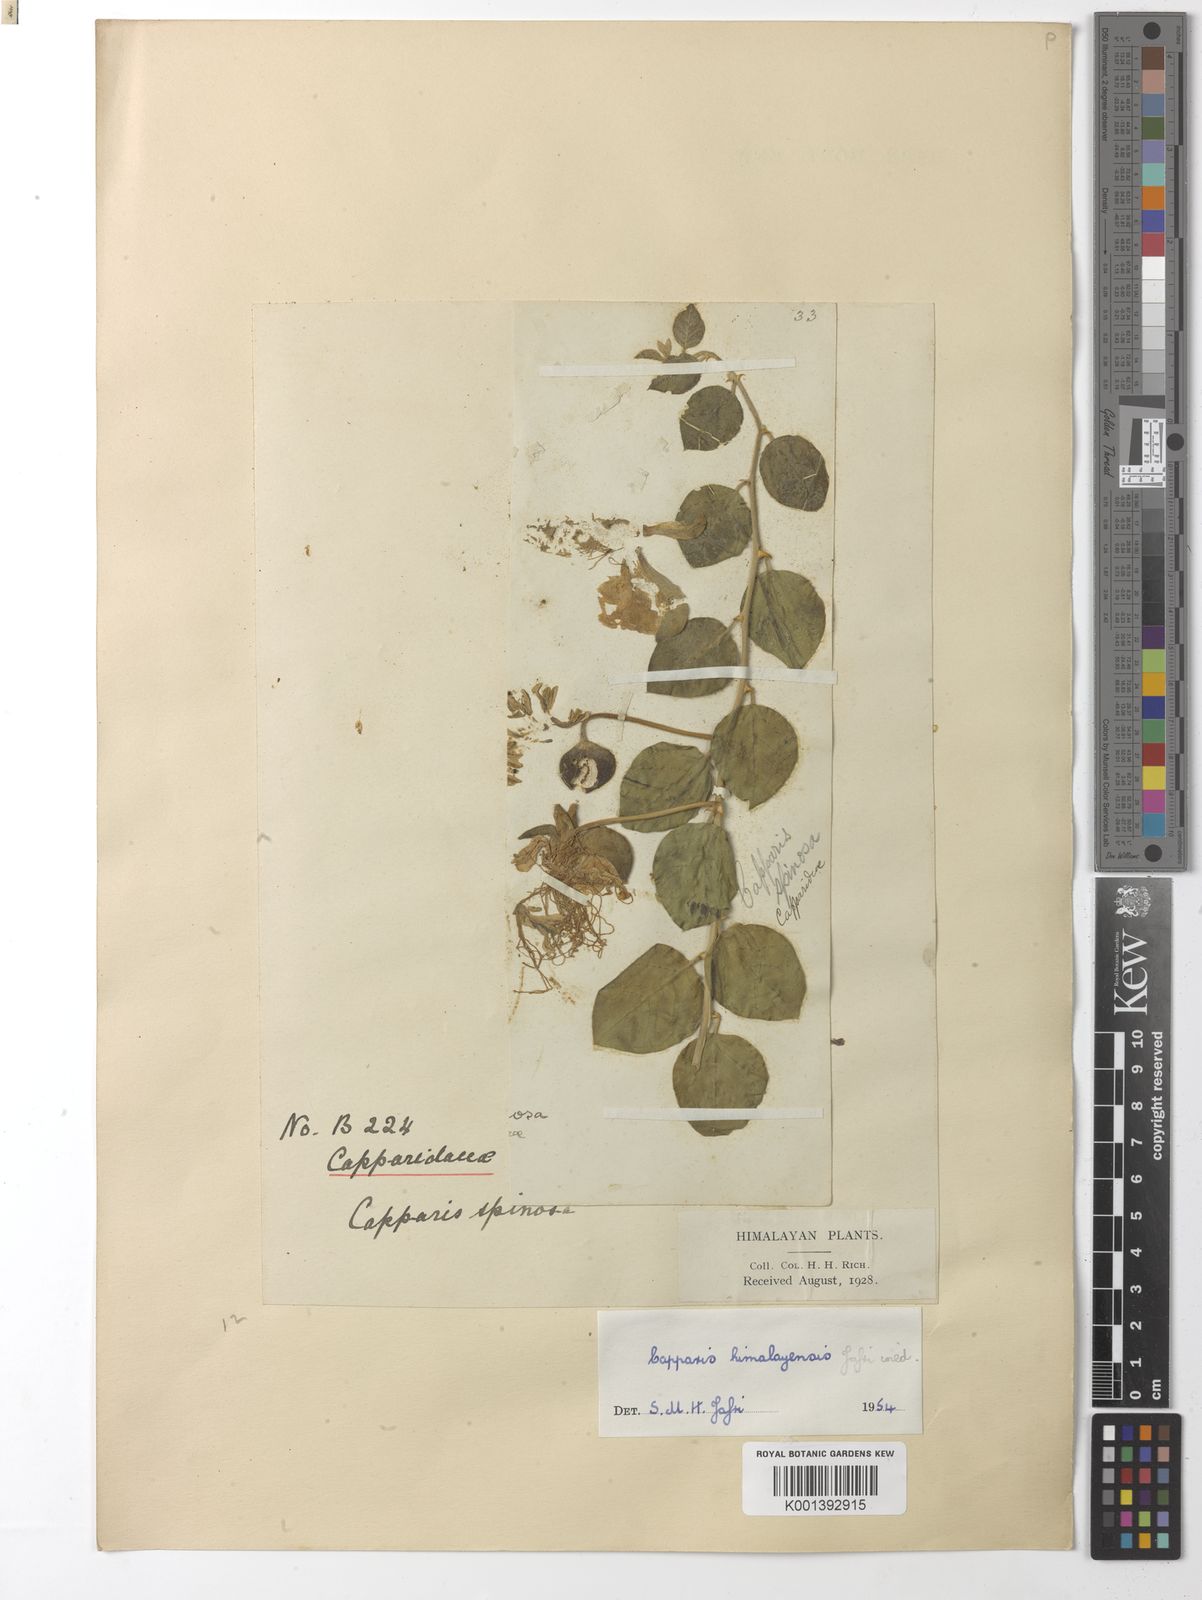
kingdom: Plantae
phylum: Tracheophyta
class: Magnoliopsida
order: Brassicales
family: Capparaceae
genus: Capparis
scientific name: Capparis spinosa
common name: Caper
